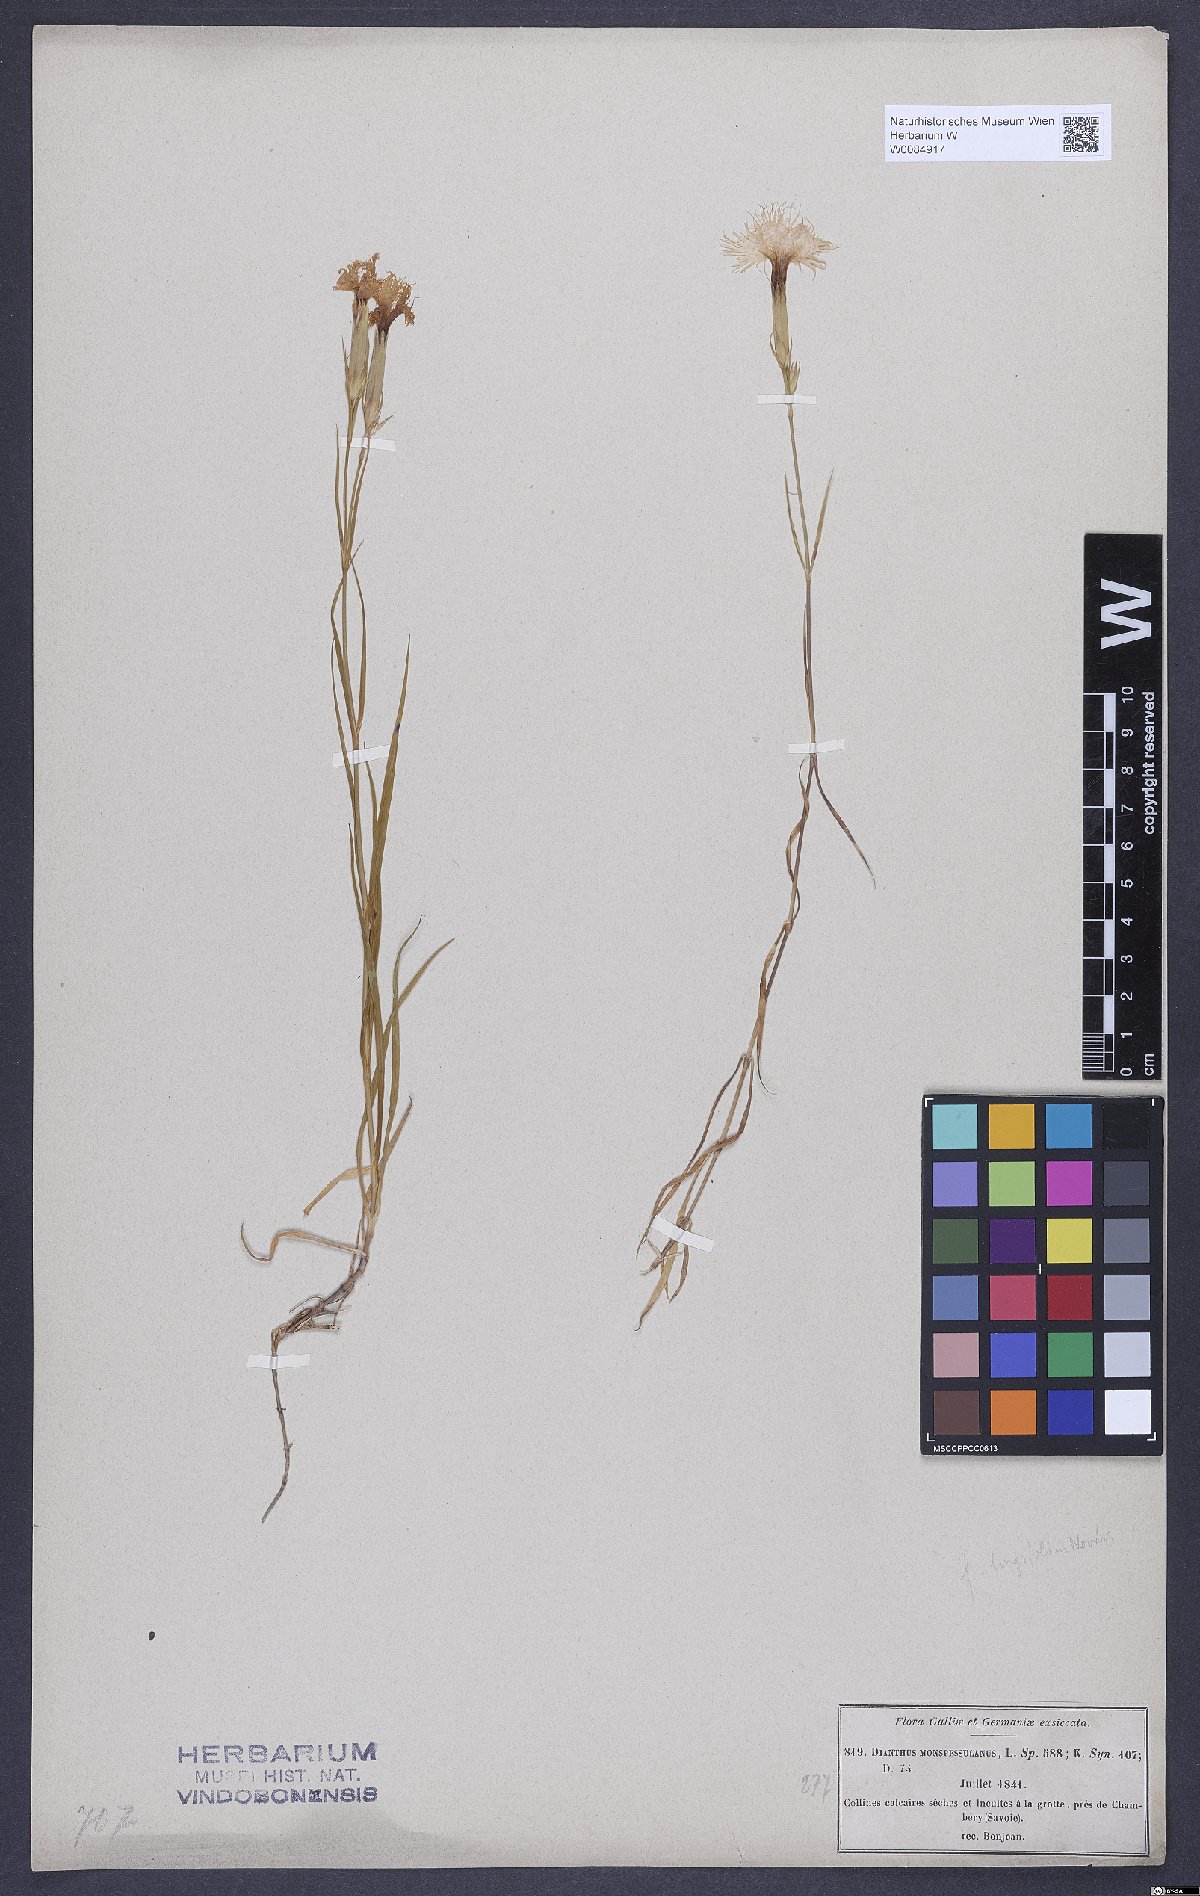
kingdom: Plantae
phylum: Tracheophyta
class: Magnoliopsida
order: Caryophyllales
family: Caryophyllaceae
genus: Dianthus
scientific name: Dianthus hyssopifolius
